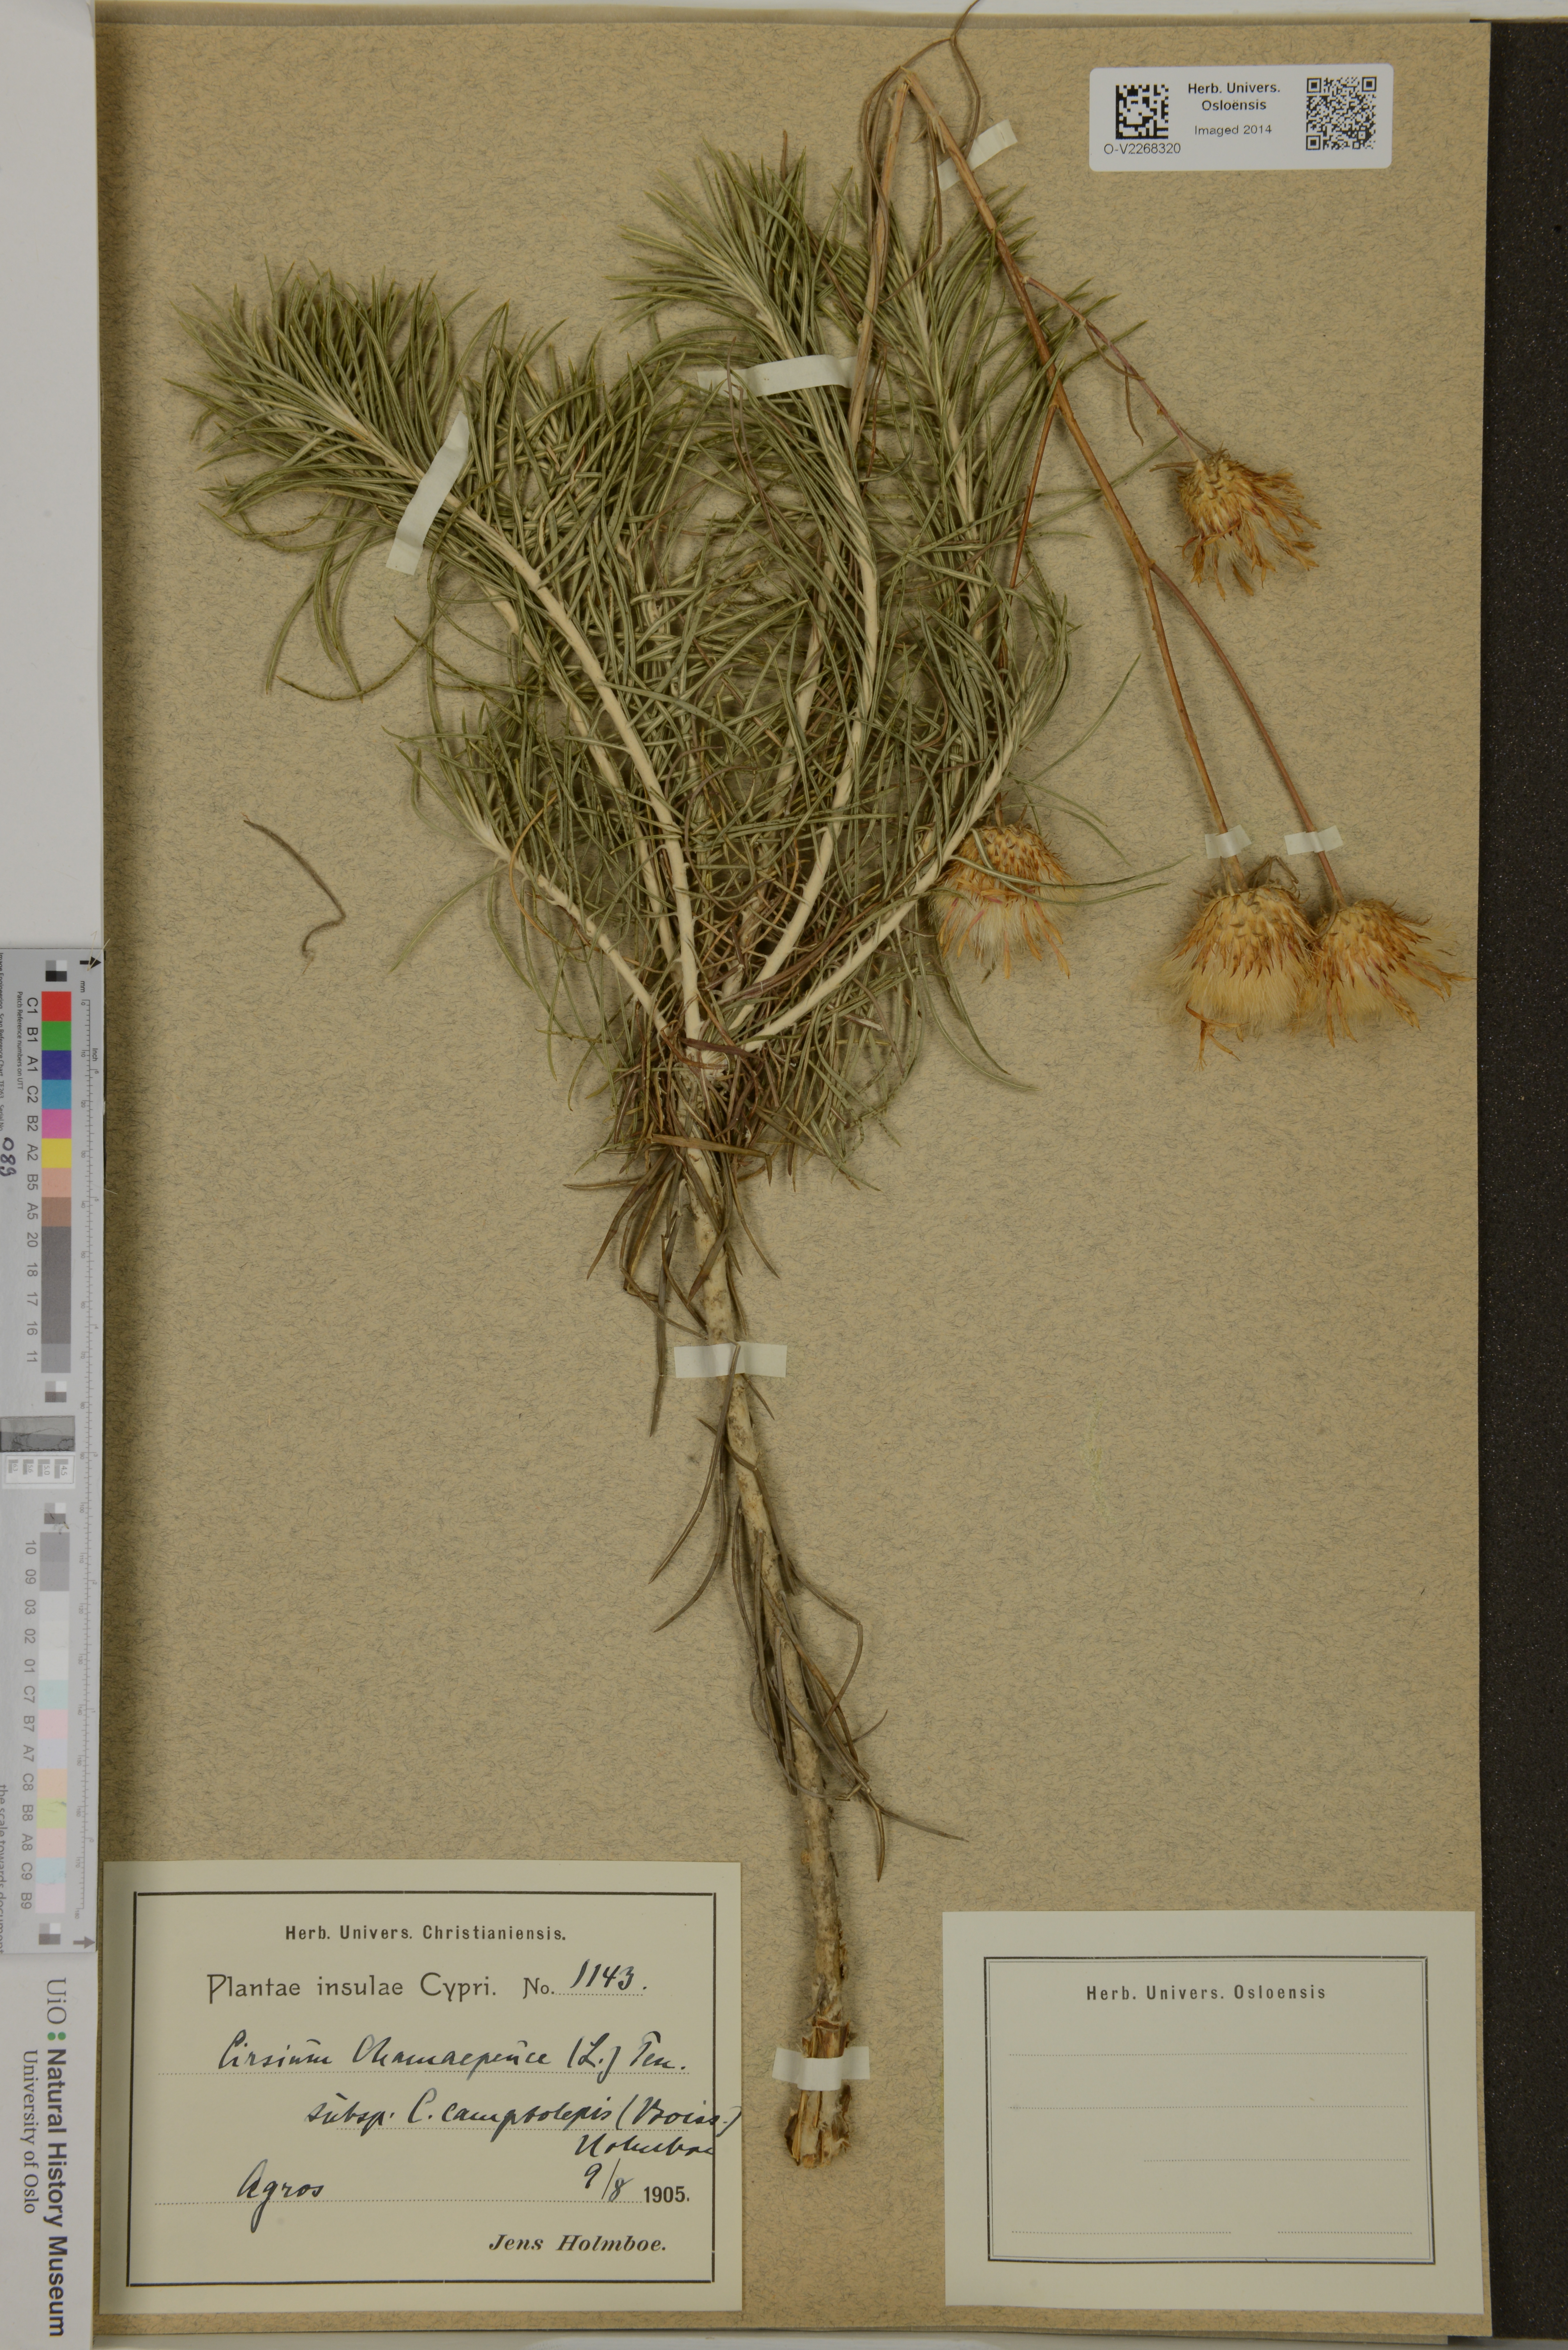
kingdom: Plantae
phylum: Tracheophyta
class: Magnoliopsida
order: Asterales
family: Asteraceae
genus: Ptilostemon
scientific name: Ptilostemon chamaepeuce
